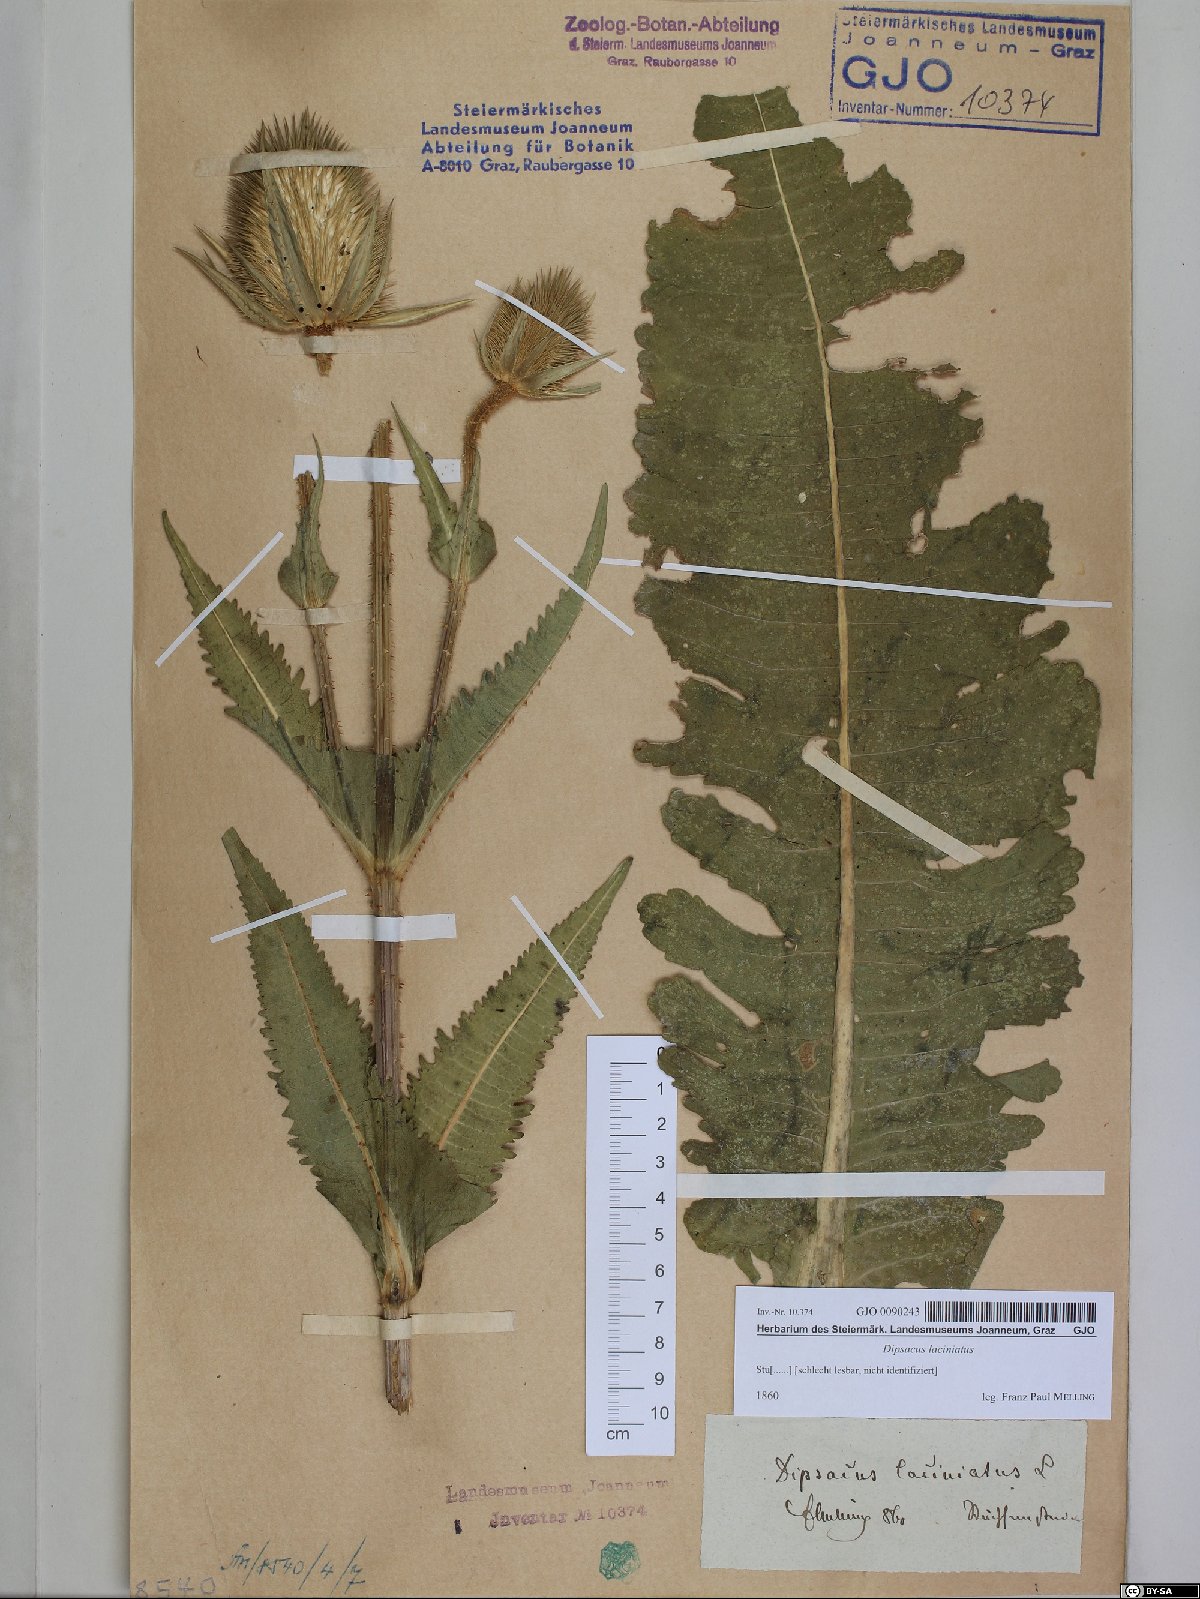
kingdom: Plantae
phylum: Tracheophyta
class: Magnoliopsida
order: Dipsacales
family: Caprifoliaceae
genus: Dipsacus
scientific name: Dipsacus laciniatus
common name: Cut-leaved teasel
